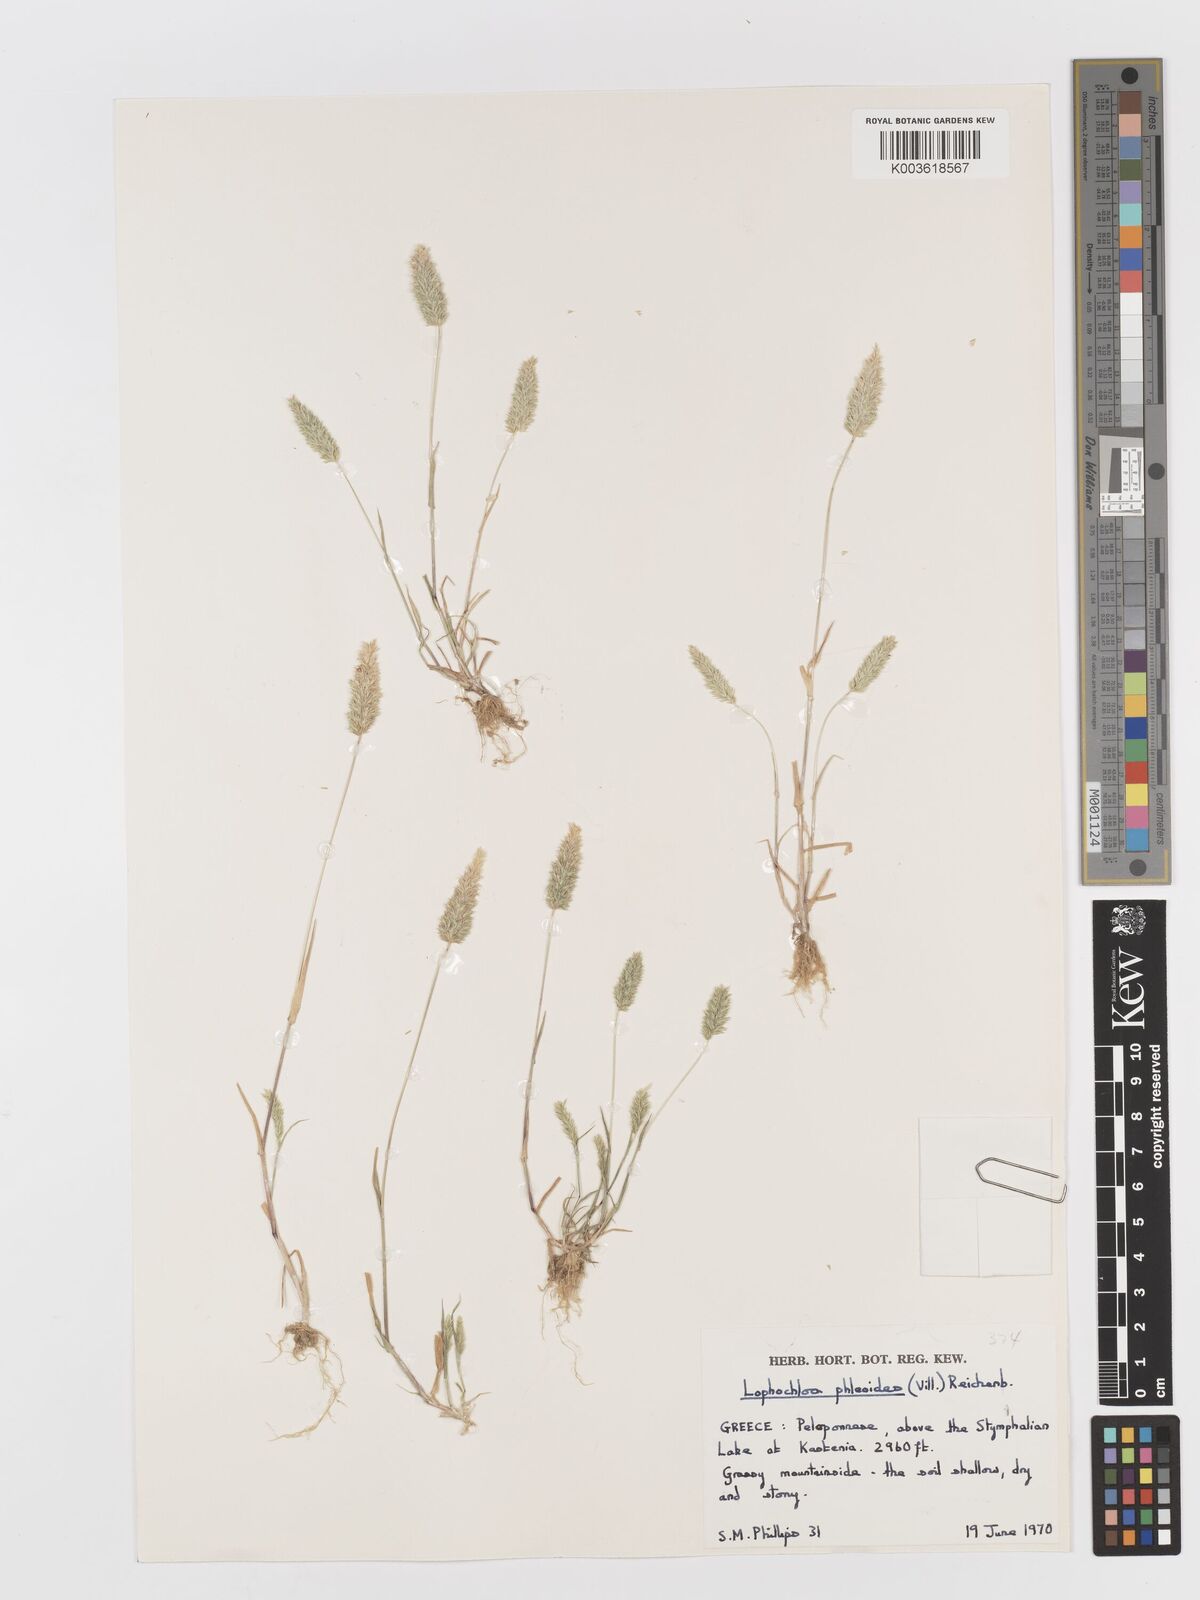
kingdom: Plantae
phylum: Tracheophyta
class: Liliopsida
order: Poales
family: Poaceae
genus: Rostraria
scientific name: Rostraria cristata
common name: Mediterranean hair-grass
